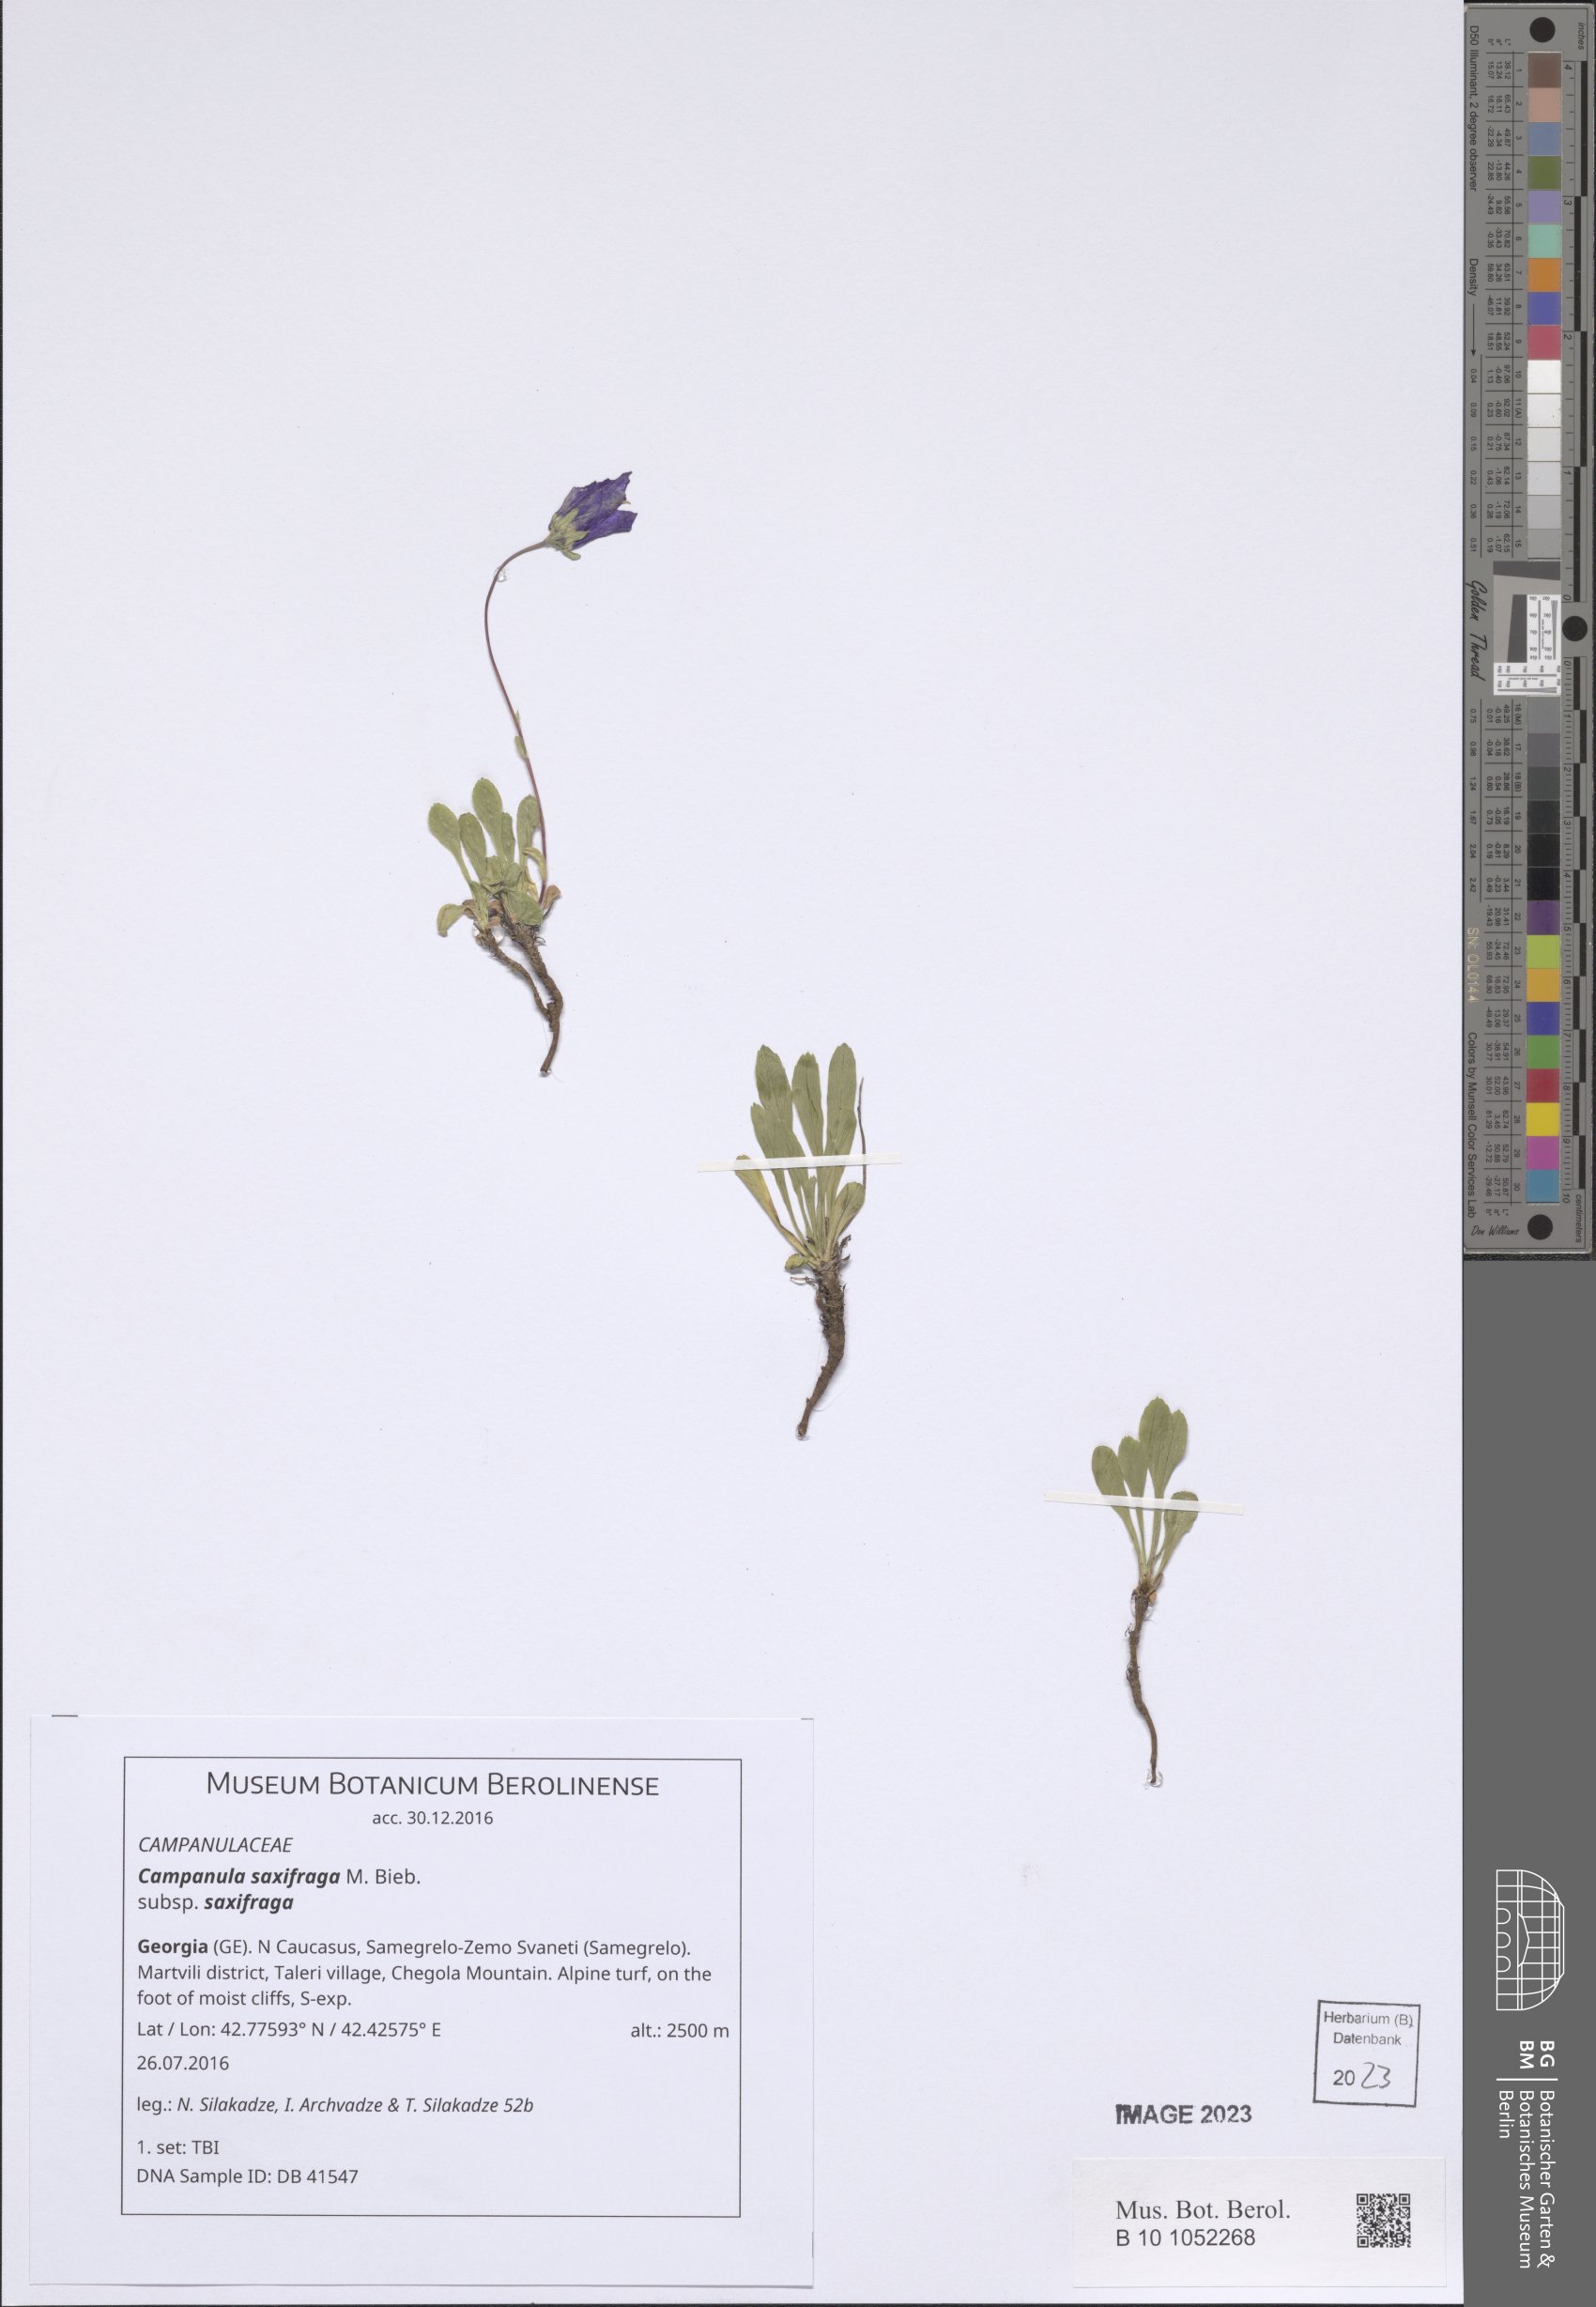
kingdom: Plantae
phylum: Tracheophyta
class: Magnoliopsida
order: Asterales
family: Campanulaceae
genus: Campanula
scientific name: Campanula saxifraga
